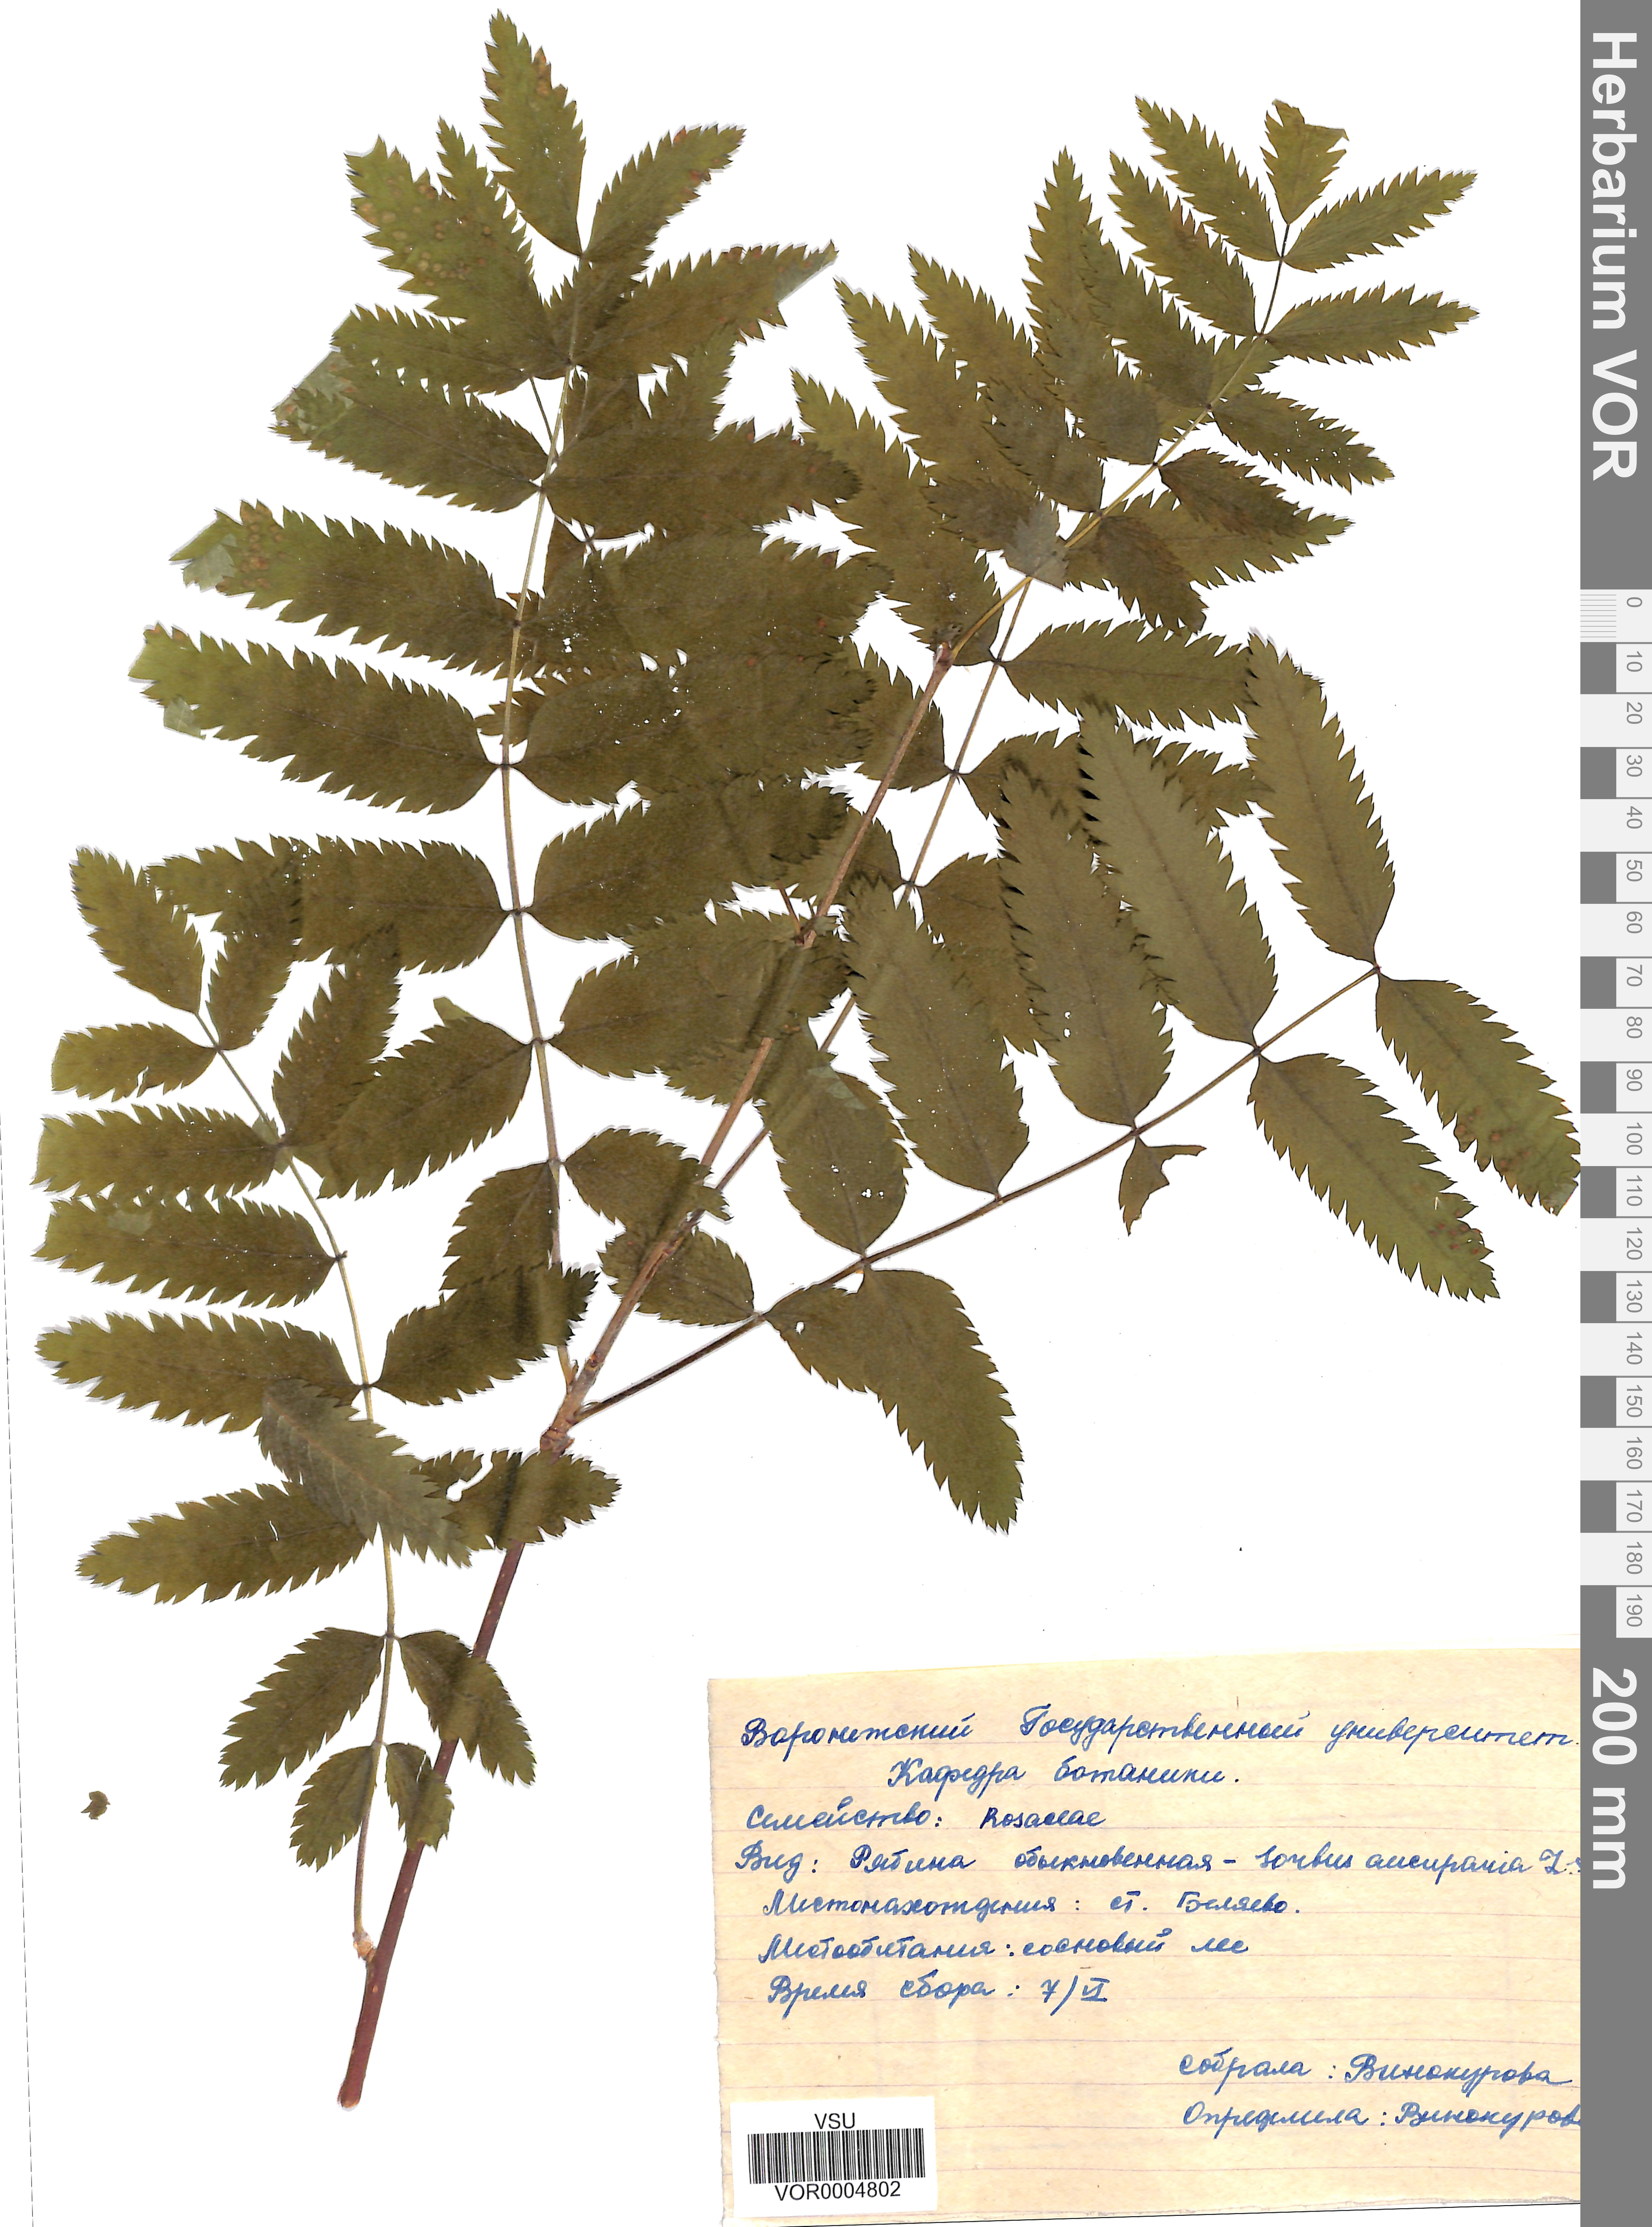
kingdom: Plantae
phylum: Tracheophyta
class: Magnoliopsida
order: Rosales
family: Rosaceae
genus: Sorbus
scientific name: Sorbus aucuparia
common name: Rowan
